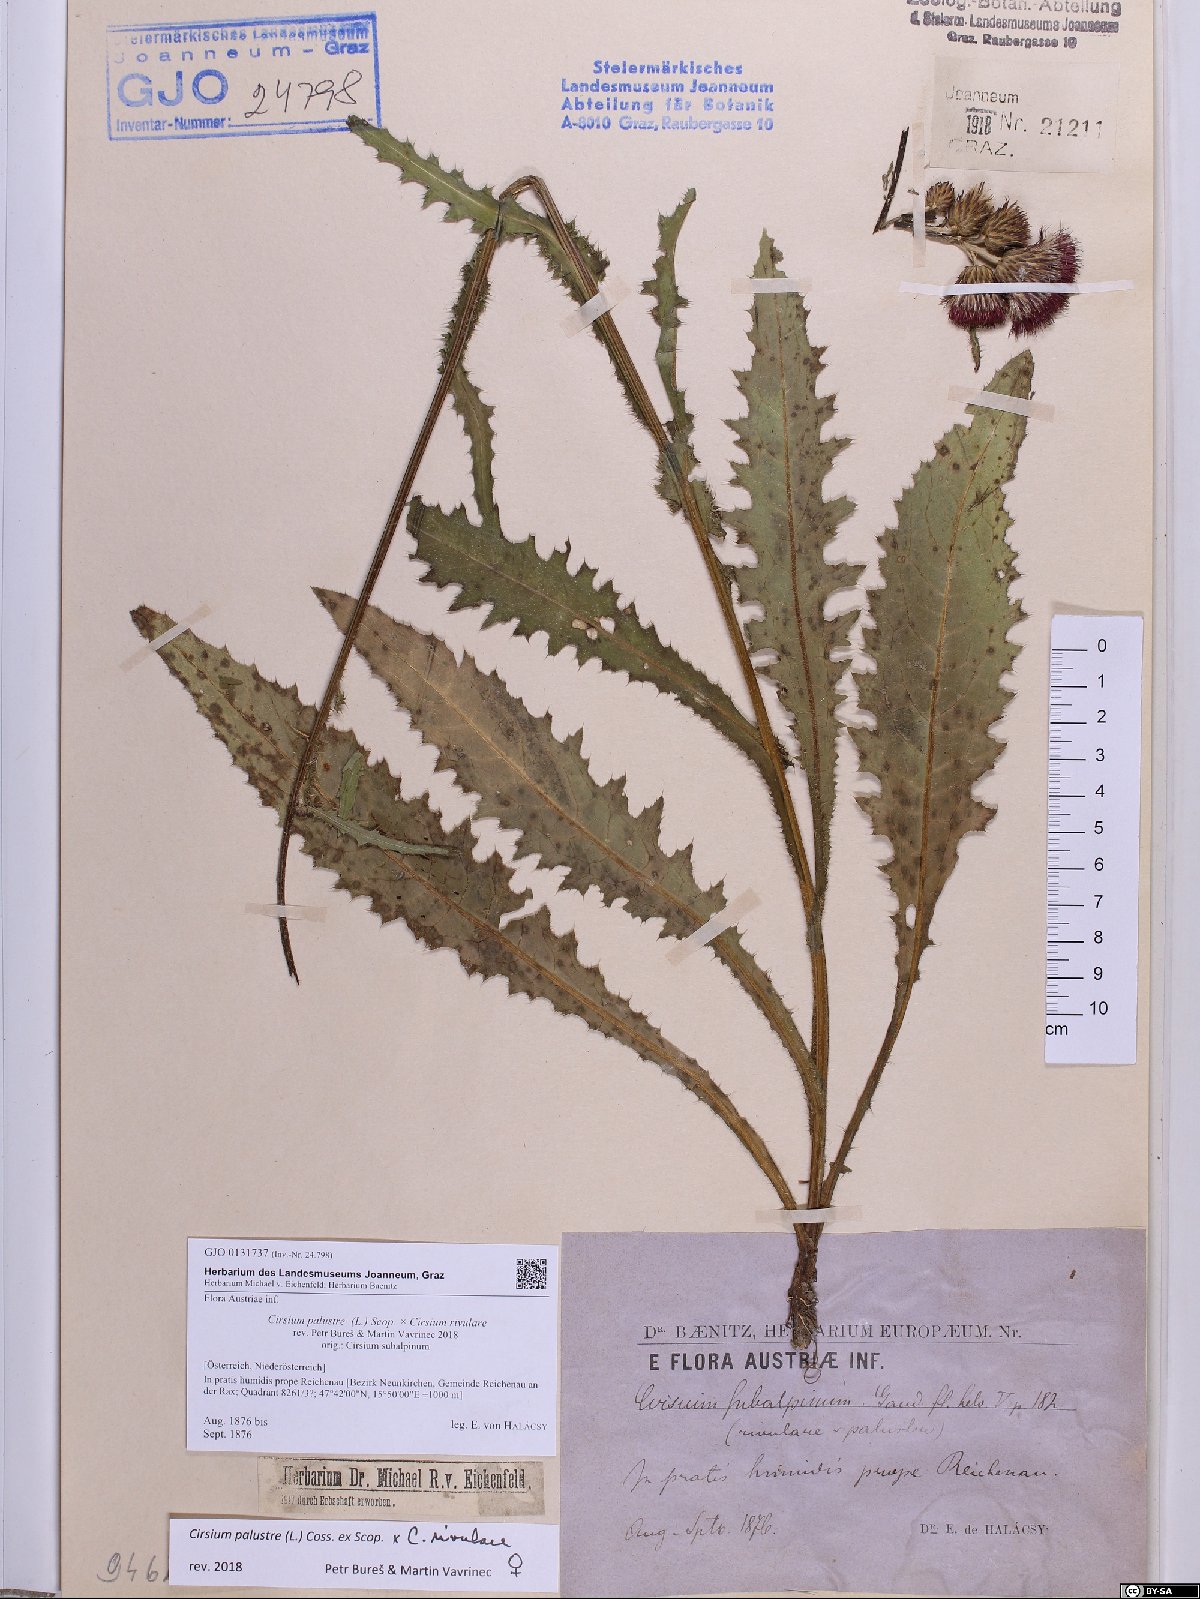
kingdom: Plantae
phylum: Tracheophyta
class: Magnoliopsida
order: Asterales
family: Asteraceae
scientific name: Asteraceae
